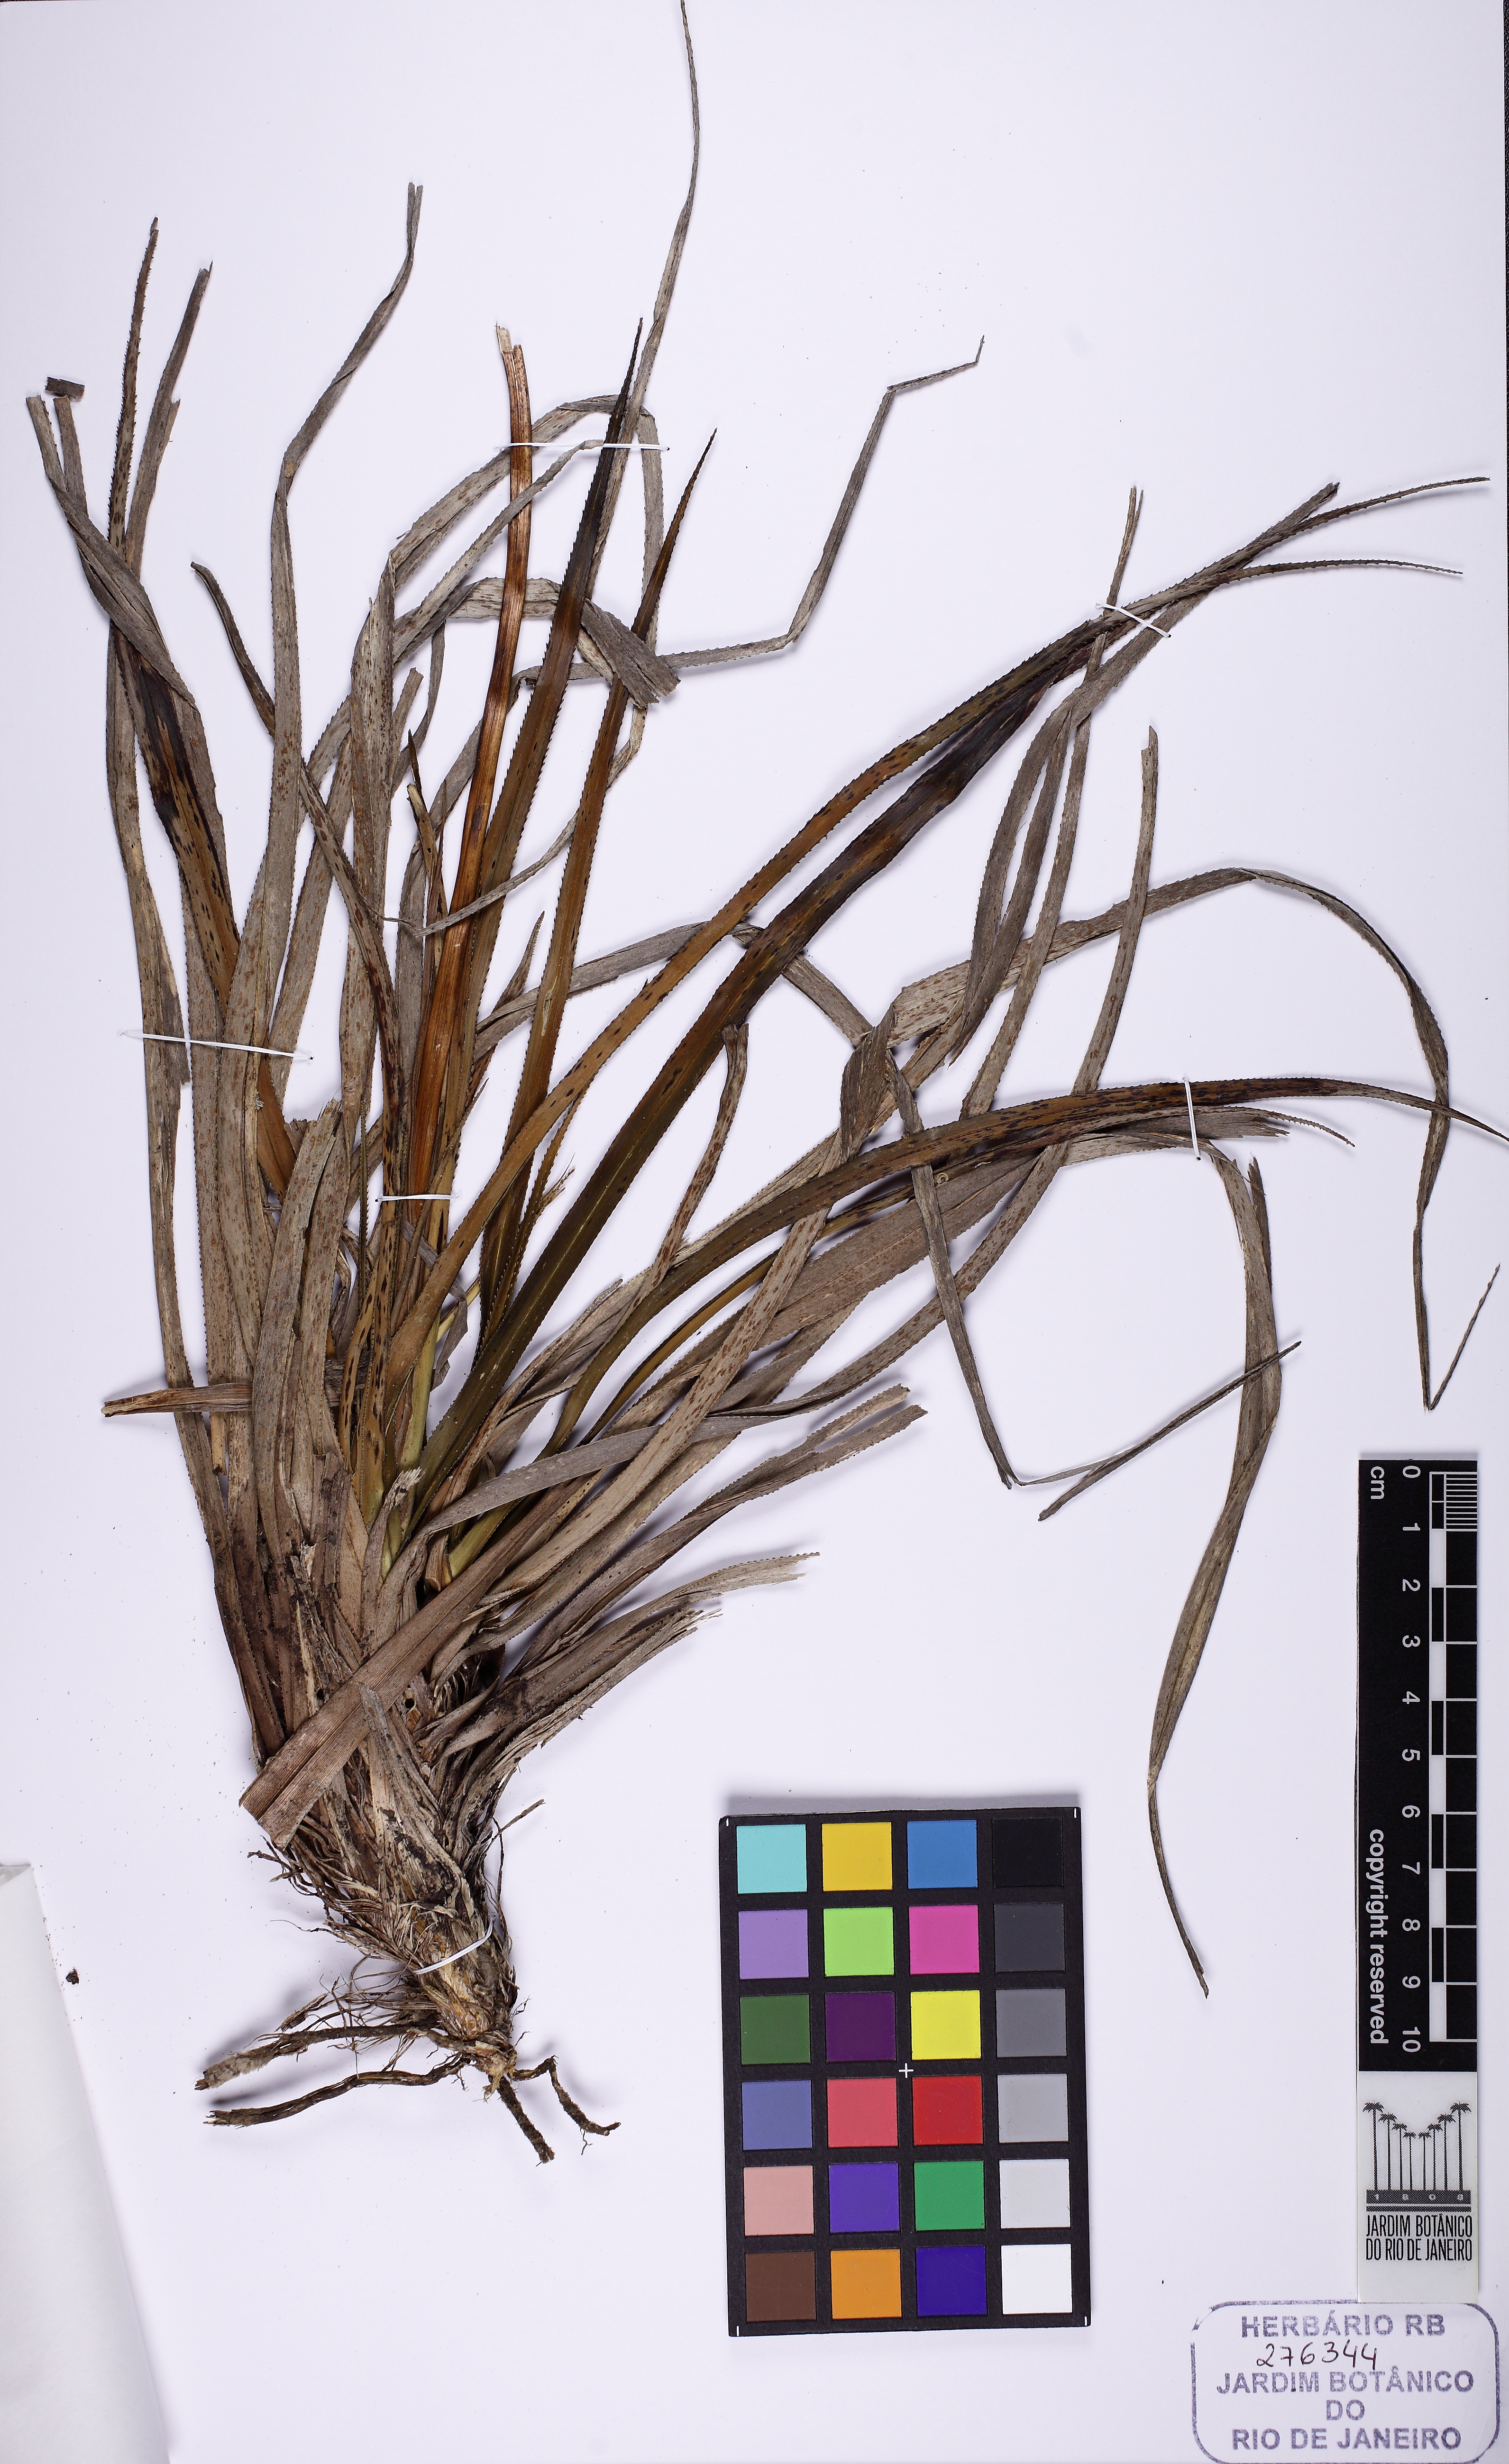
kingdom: Plantae
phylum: Tracheophyta
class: Liliopsida
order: Pandanales
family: Velloziaceae
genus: Barbacenia
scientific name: Barbacenia purpurea
